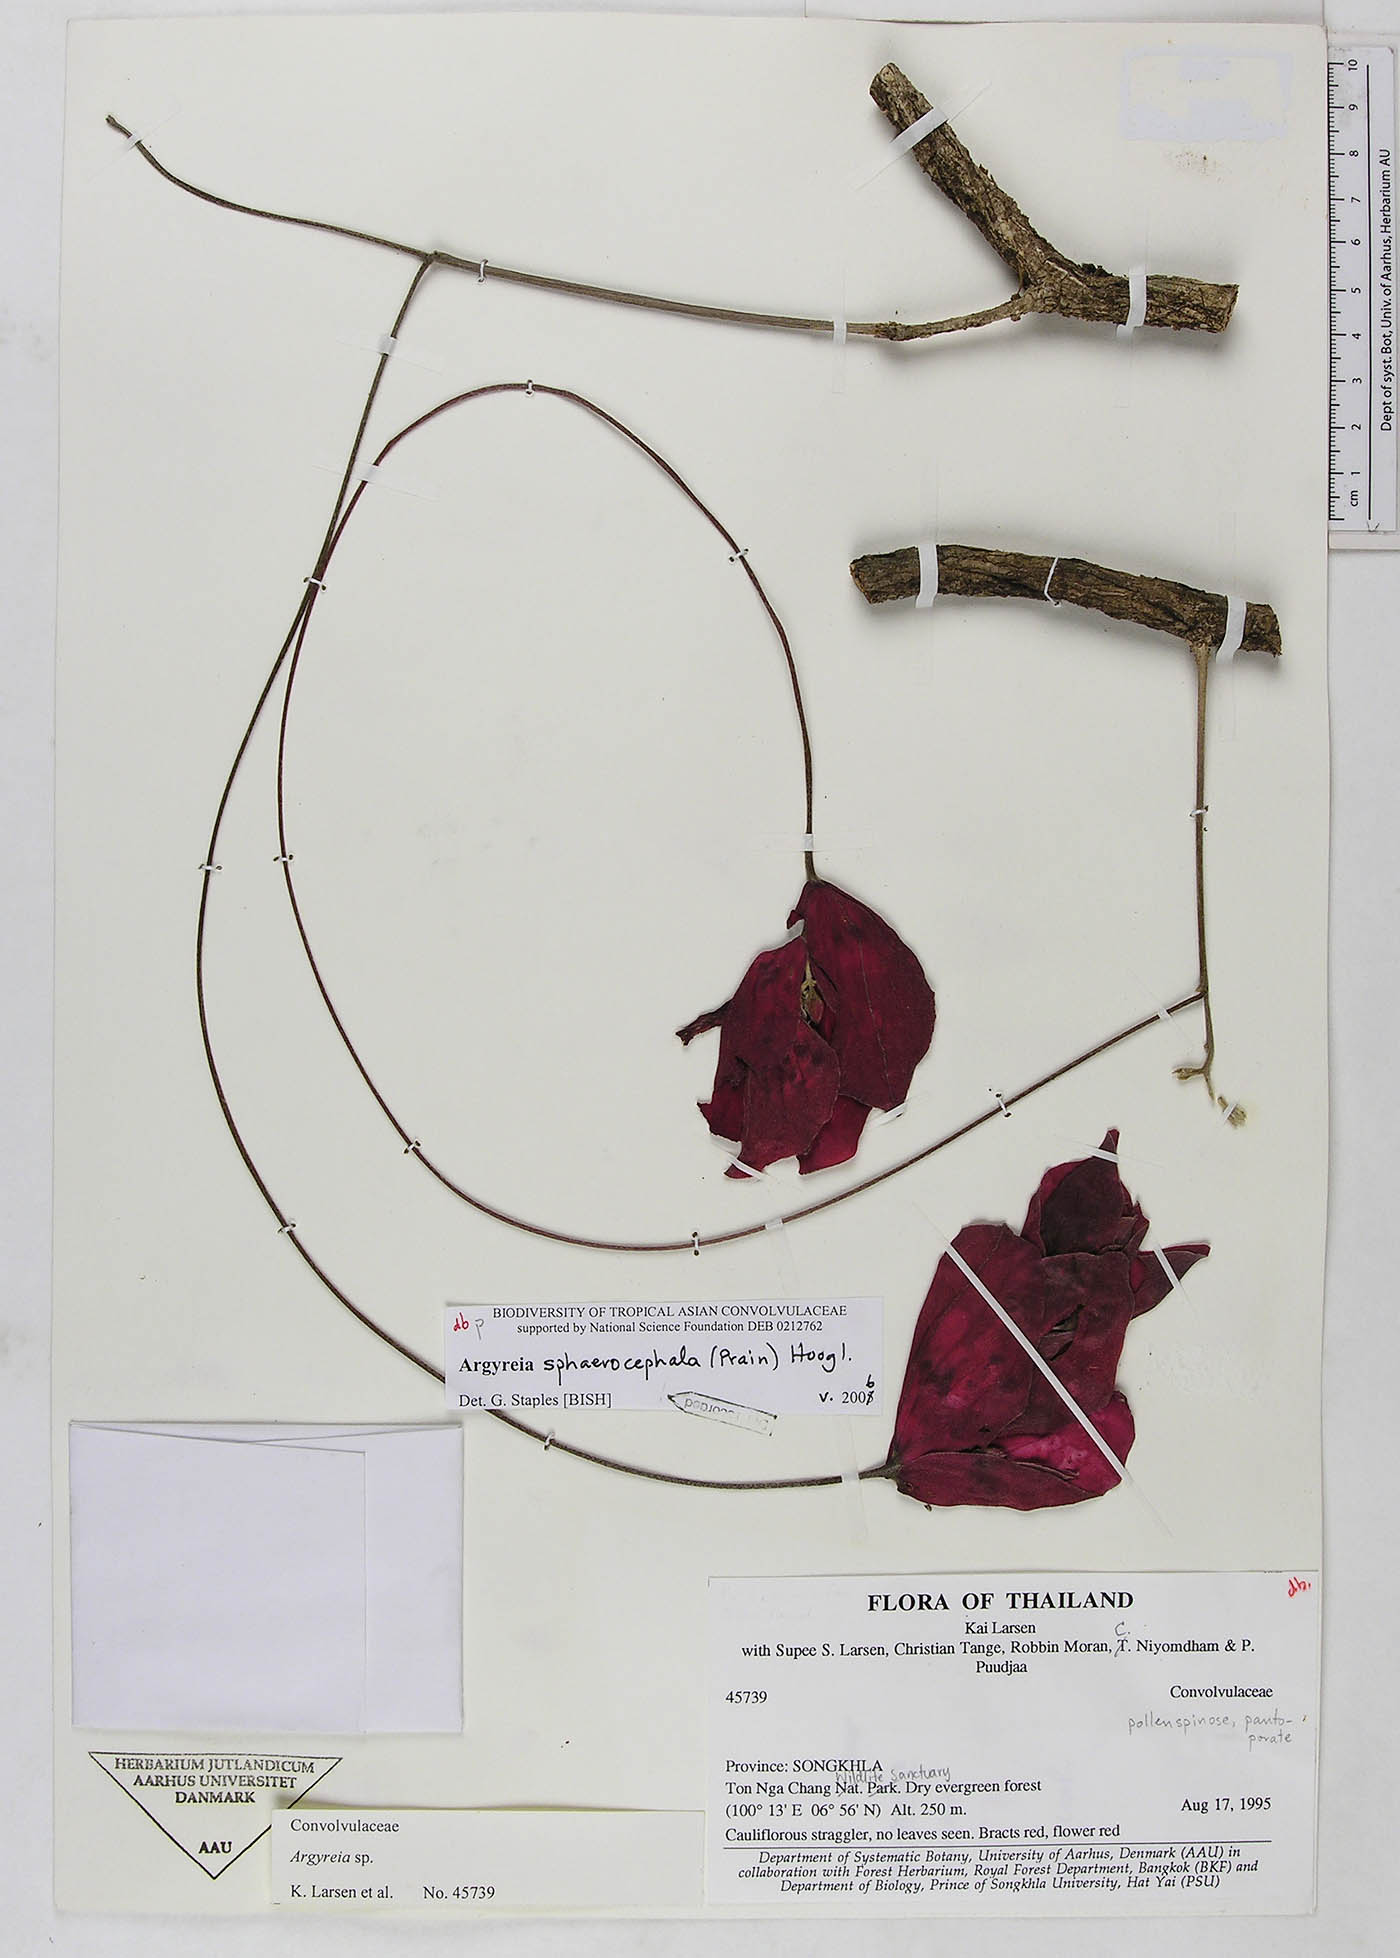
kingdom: Plantae
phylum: Tracheophyta
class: Magnoliopsida
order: Solanales
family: Convolvulaceae
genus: Argyreia
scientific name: Argyreia sphaerocephala
